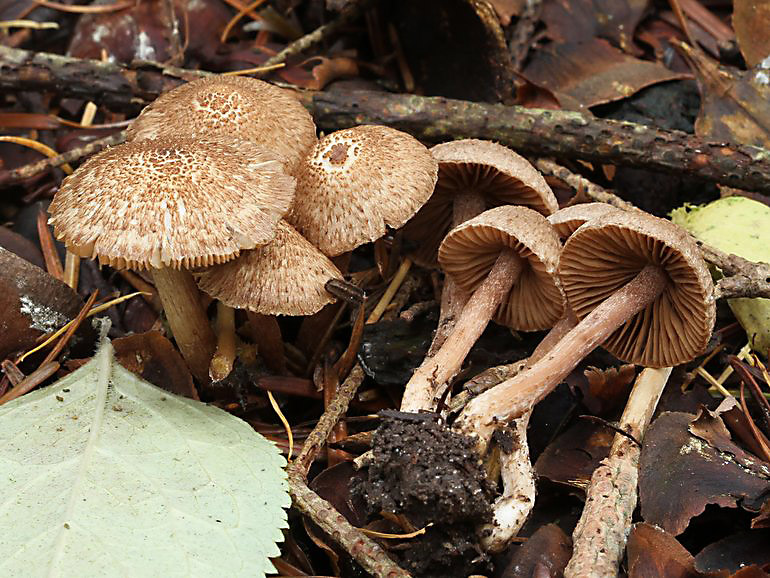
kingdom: Fungi
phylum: Basidiomycota
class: Agaricomycetes
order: Agaricales
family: Inocybaceae
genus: Inocybe
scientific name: Inocybe cincinnata
